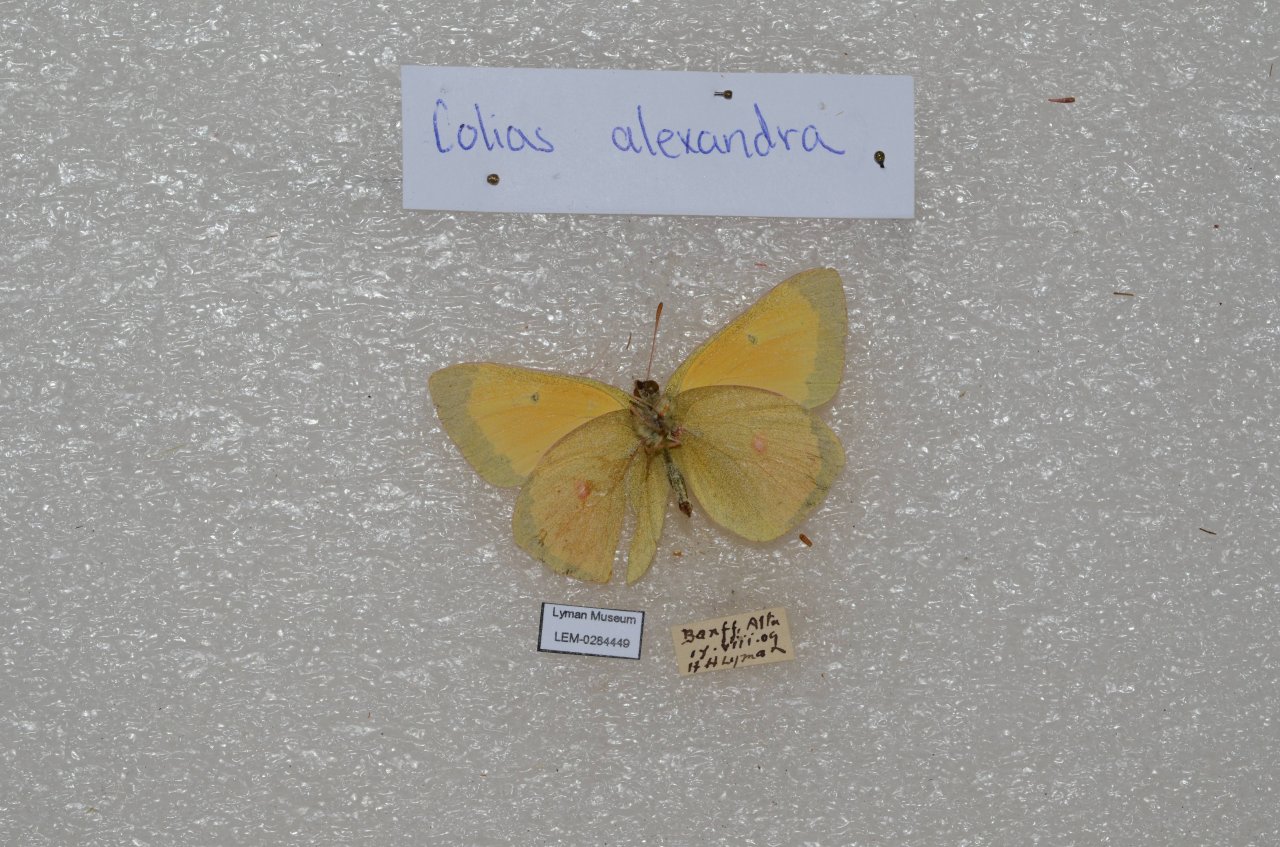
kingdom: Animalia
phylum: Arthropoda
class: Insecta
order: Lepidoptera
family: Pieridae
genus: Colias
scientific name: Colias
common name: Clouded Yellows
